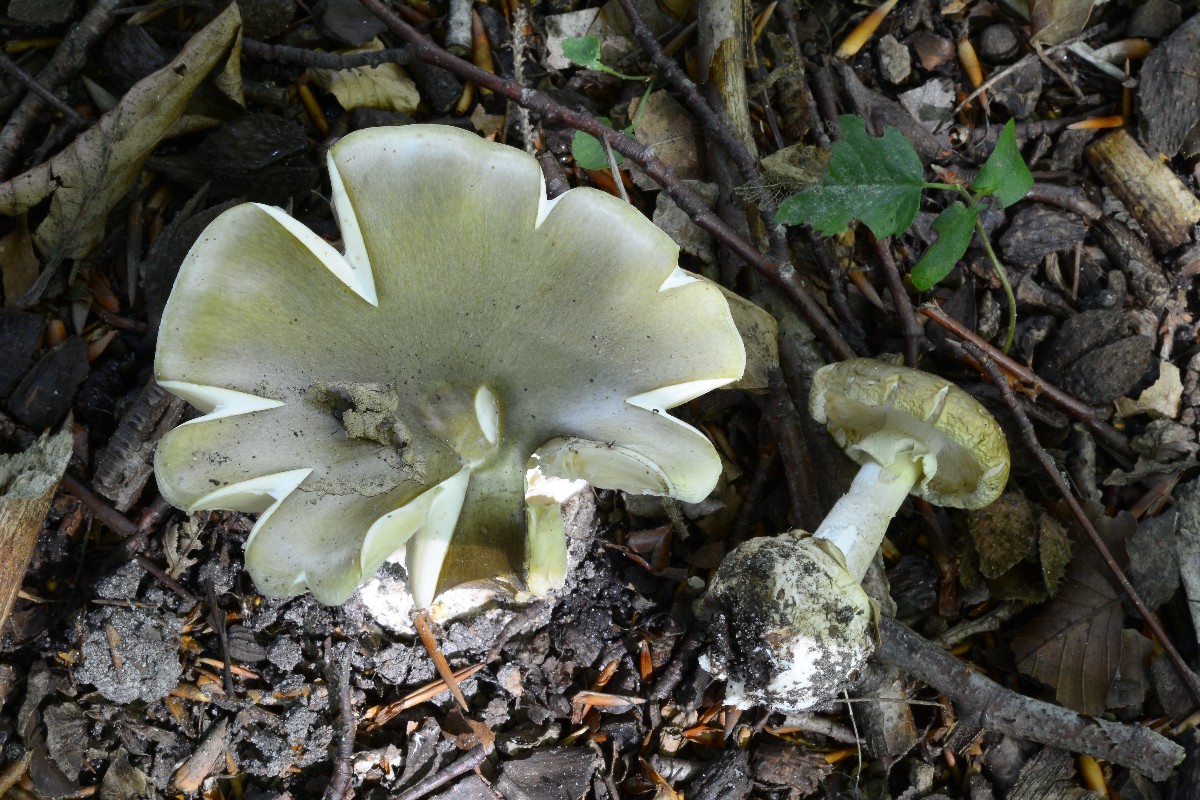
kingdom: Fungi
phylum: Basidiomycota
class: Agaricomycetes
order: Agaricales
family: Amanitaceae
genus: Amanita
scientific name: Amanita phalloides
